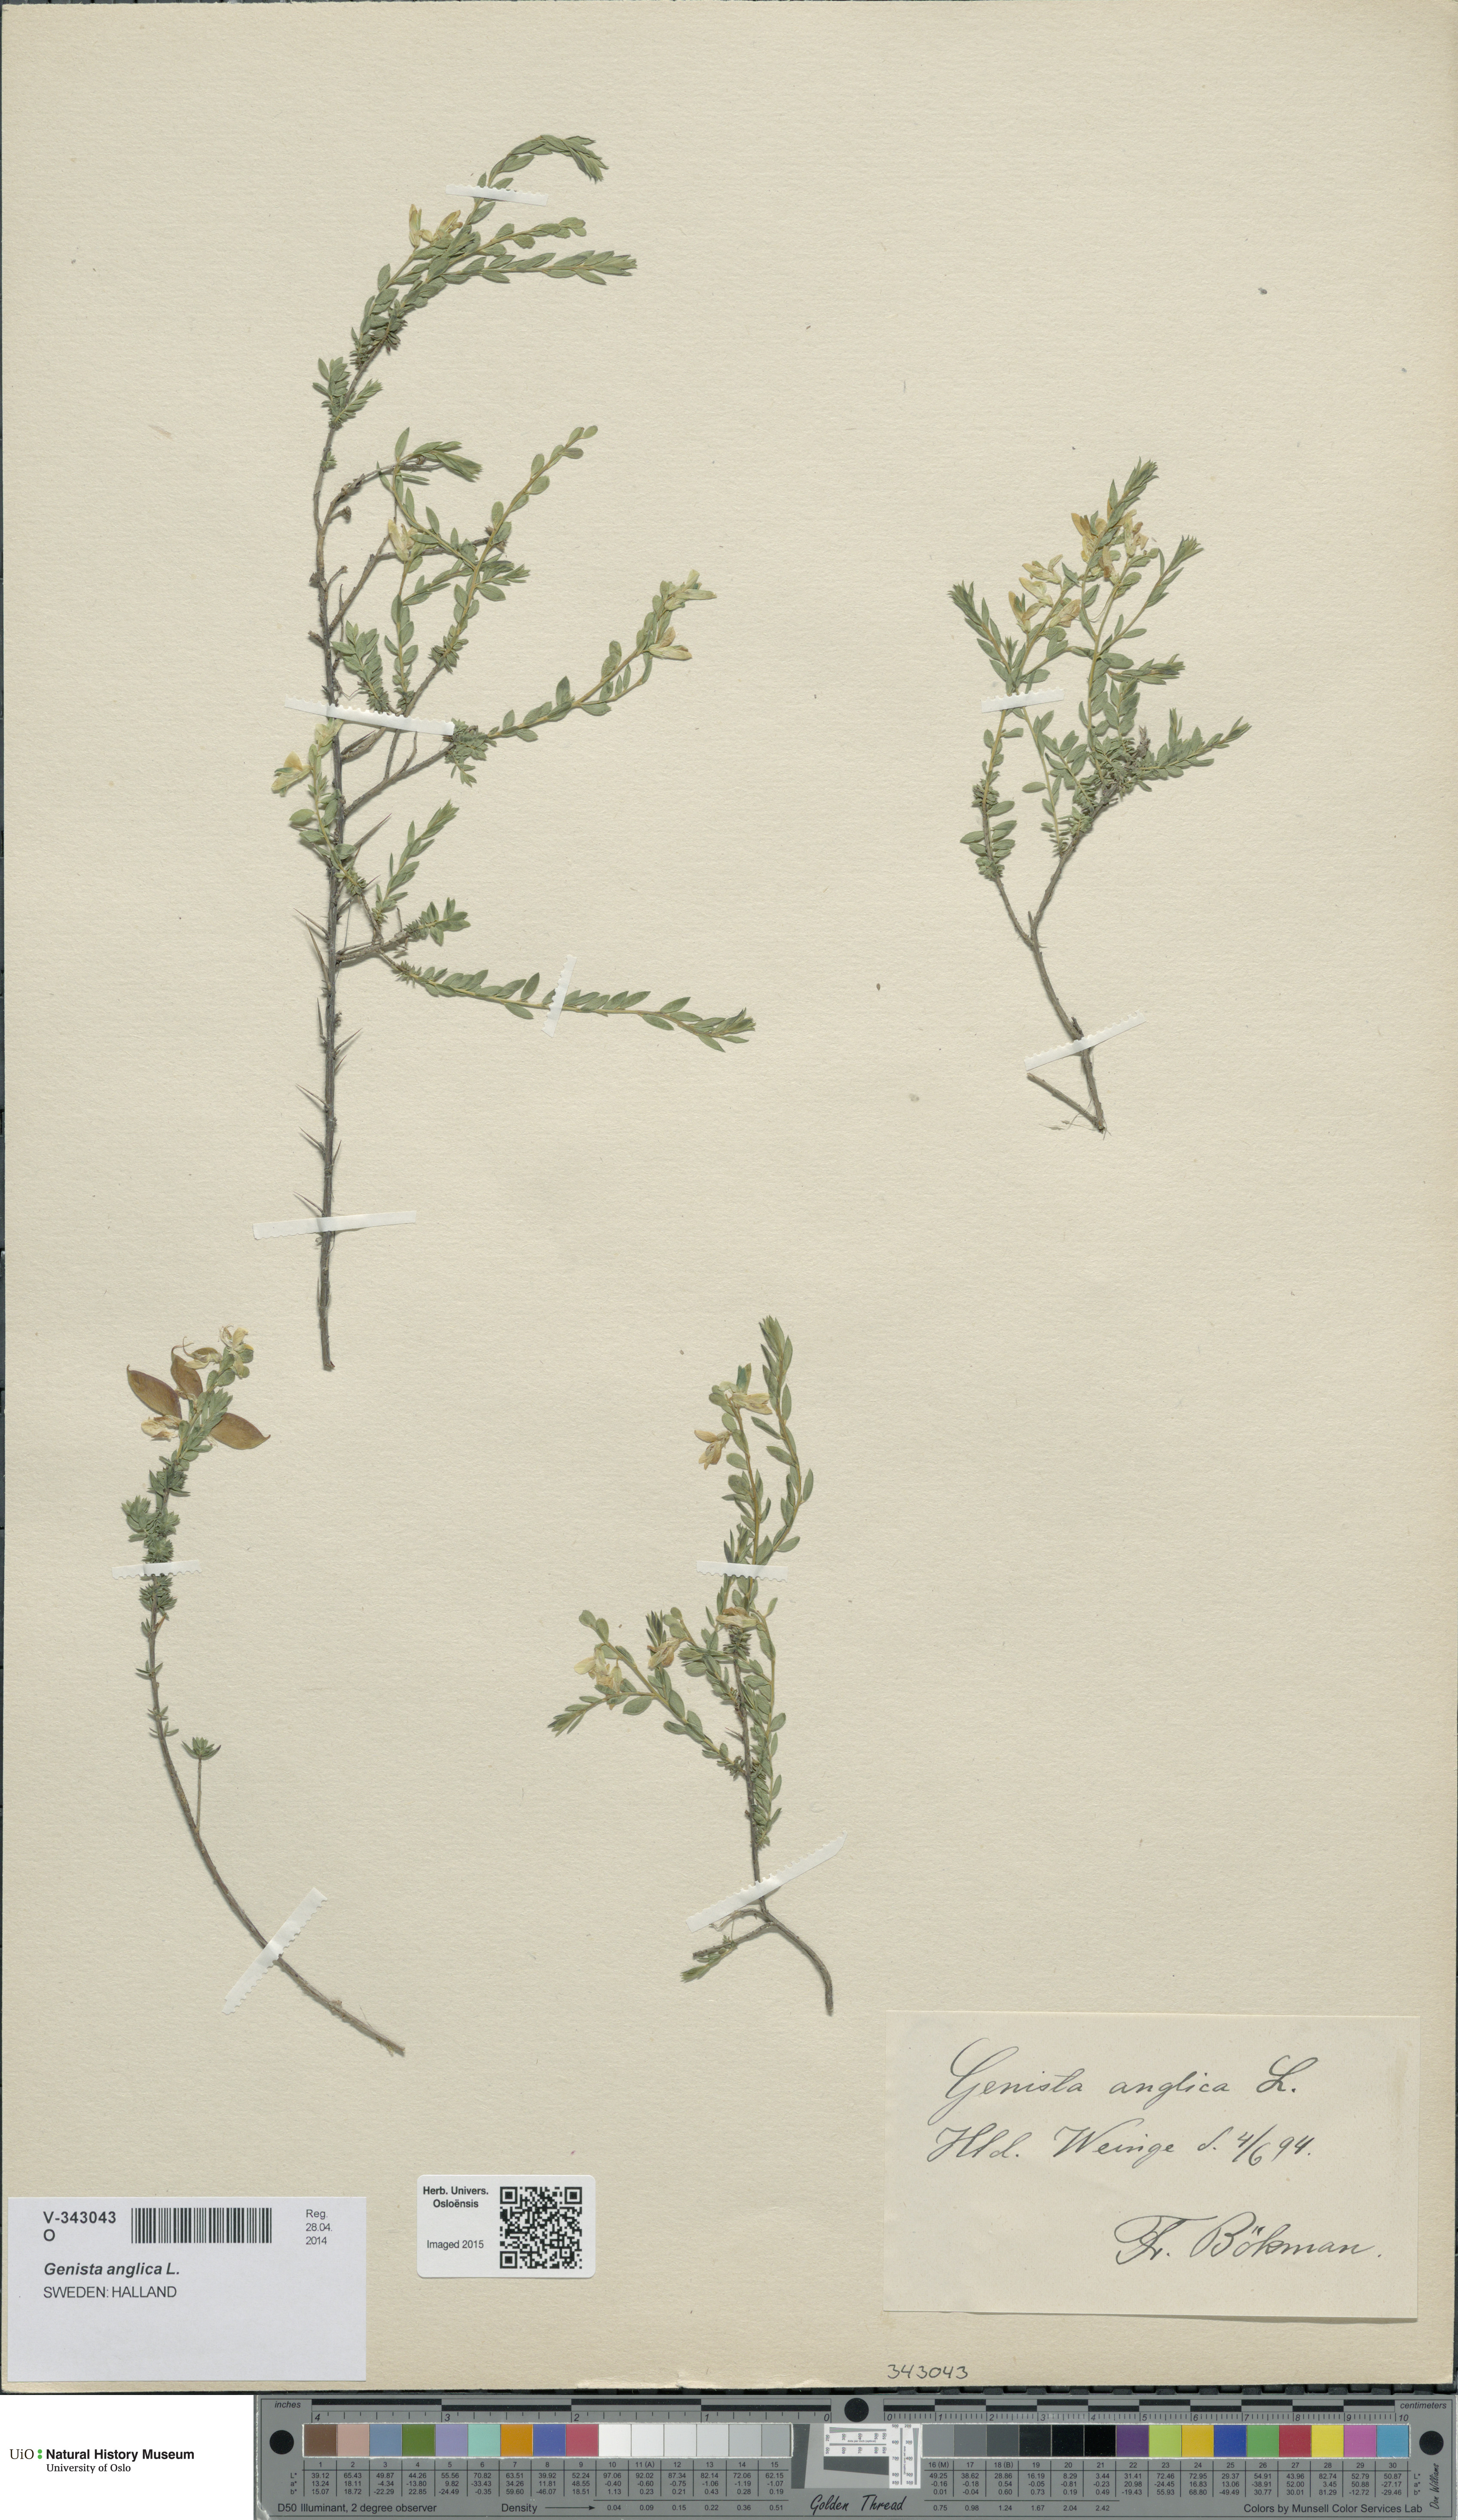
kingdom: Plantae
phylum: Tracheophyta
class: Magnoliopsida
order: Fabales
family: Fabaceae
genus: Genista
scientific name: Genista anglica
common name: Petty whin
